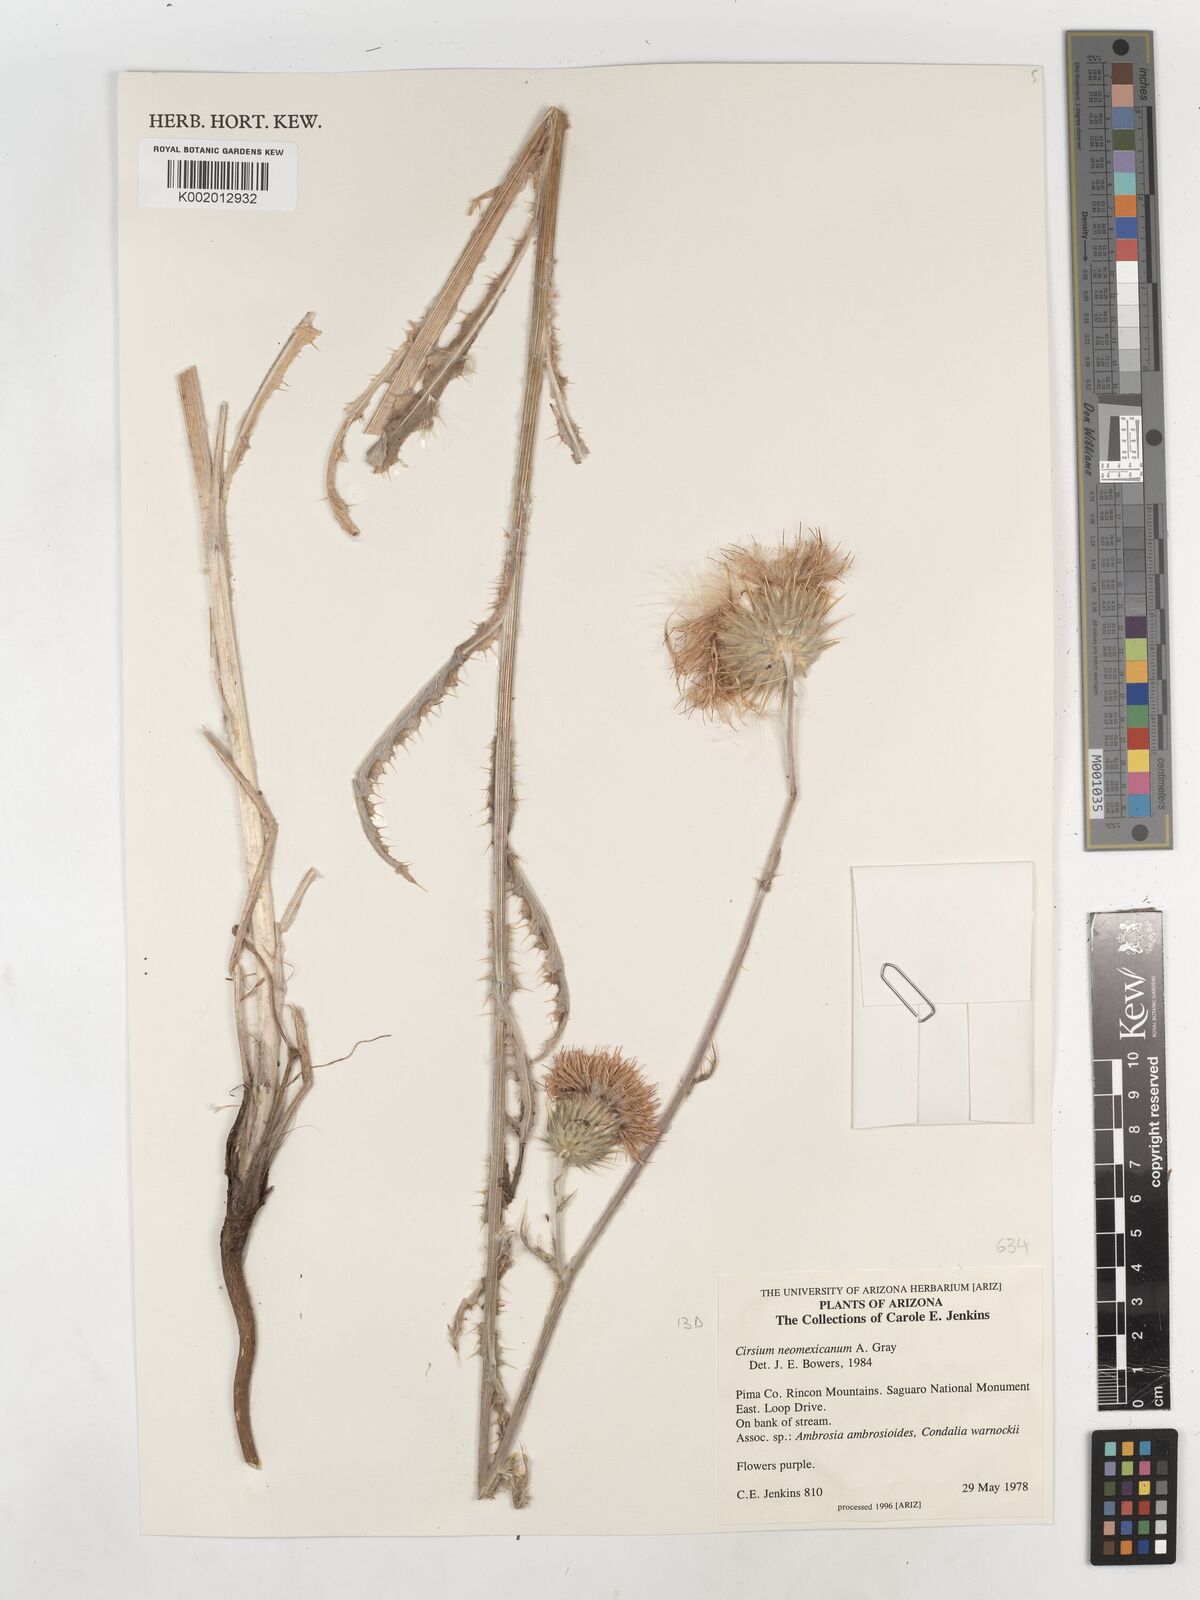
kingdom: Plantae
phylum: Tracheophyta
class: Magnoliopsida
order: Asterales
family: Asteraceae
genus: Cirsium
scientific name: Cirsium neomexicanum
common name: New mexico thistle
